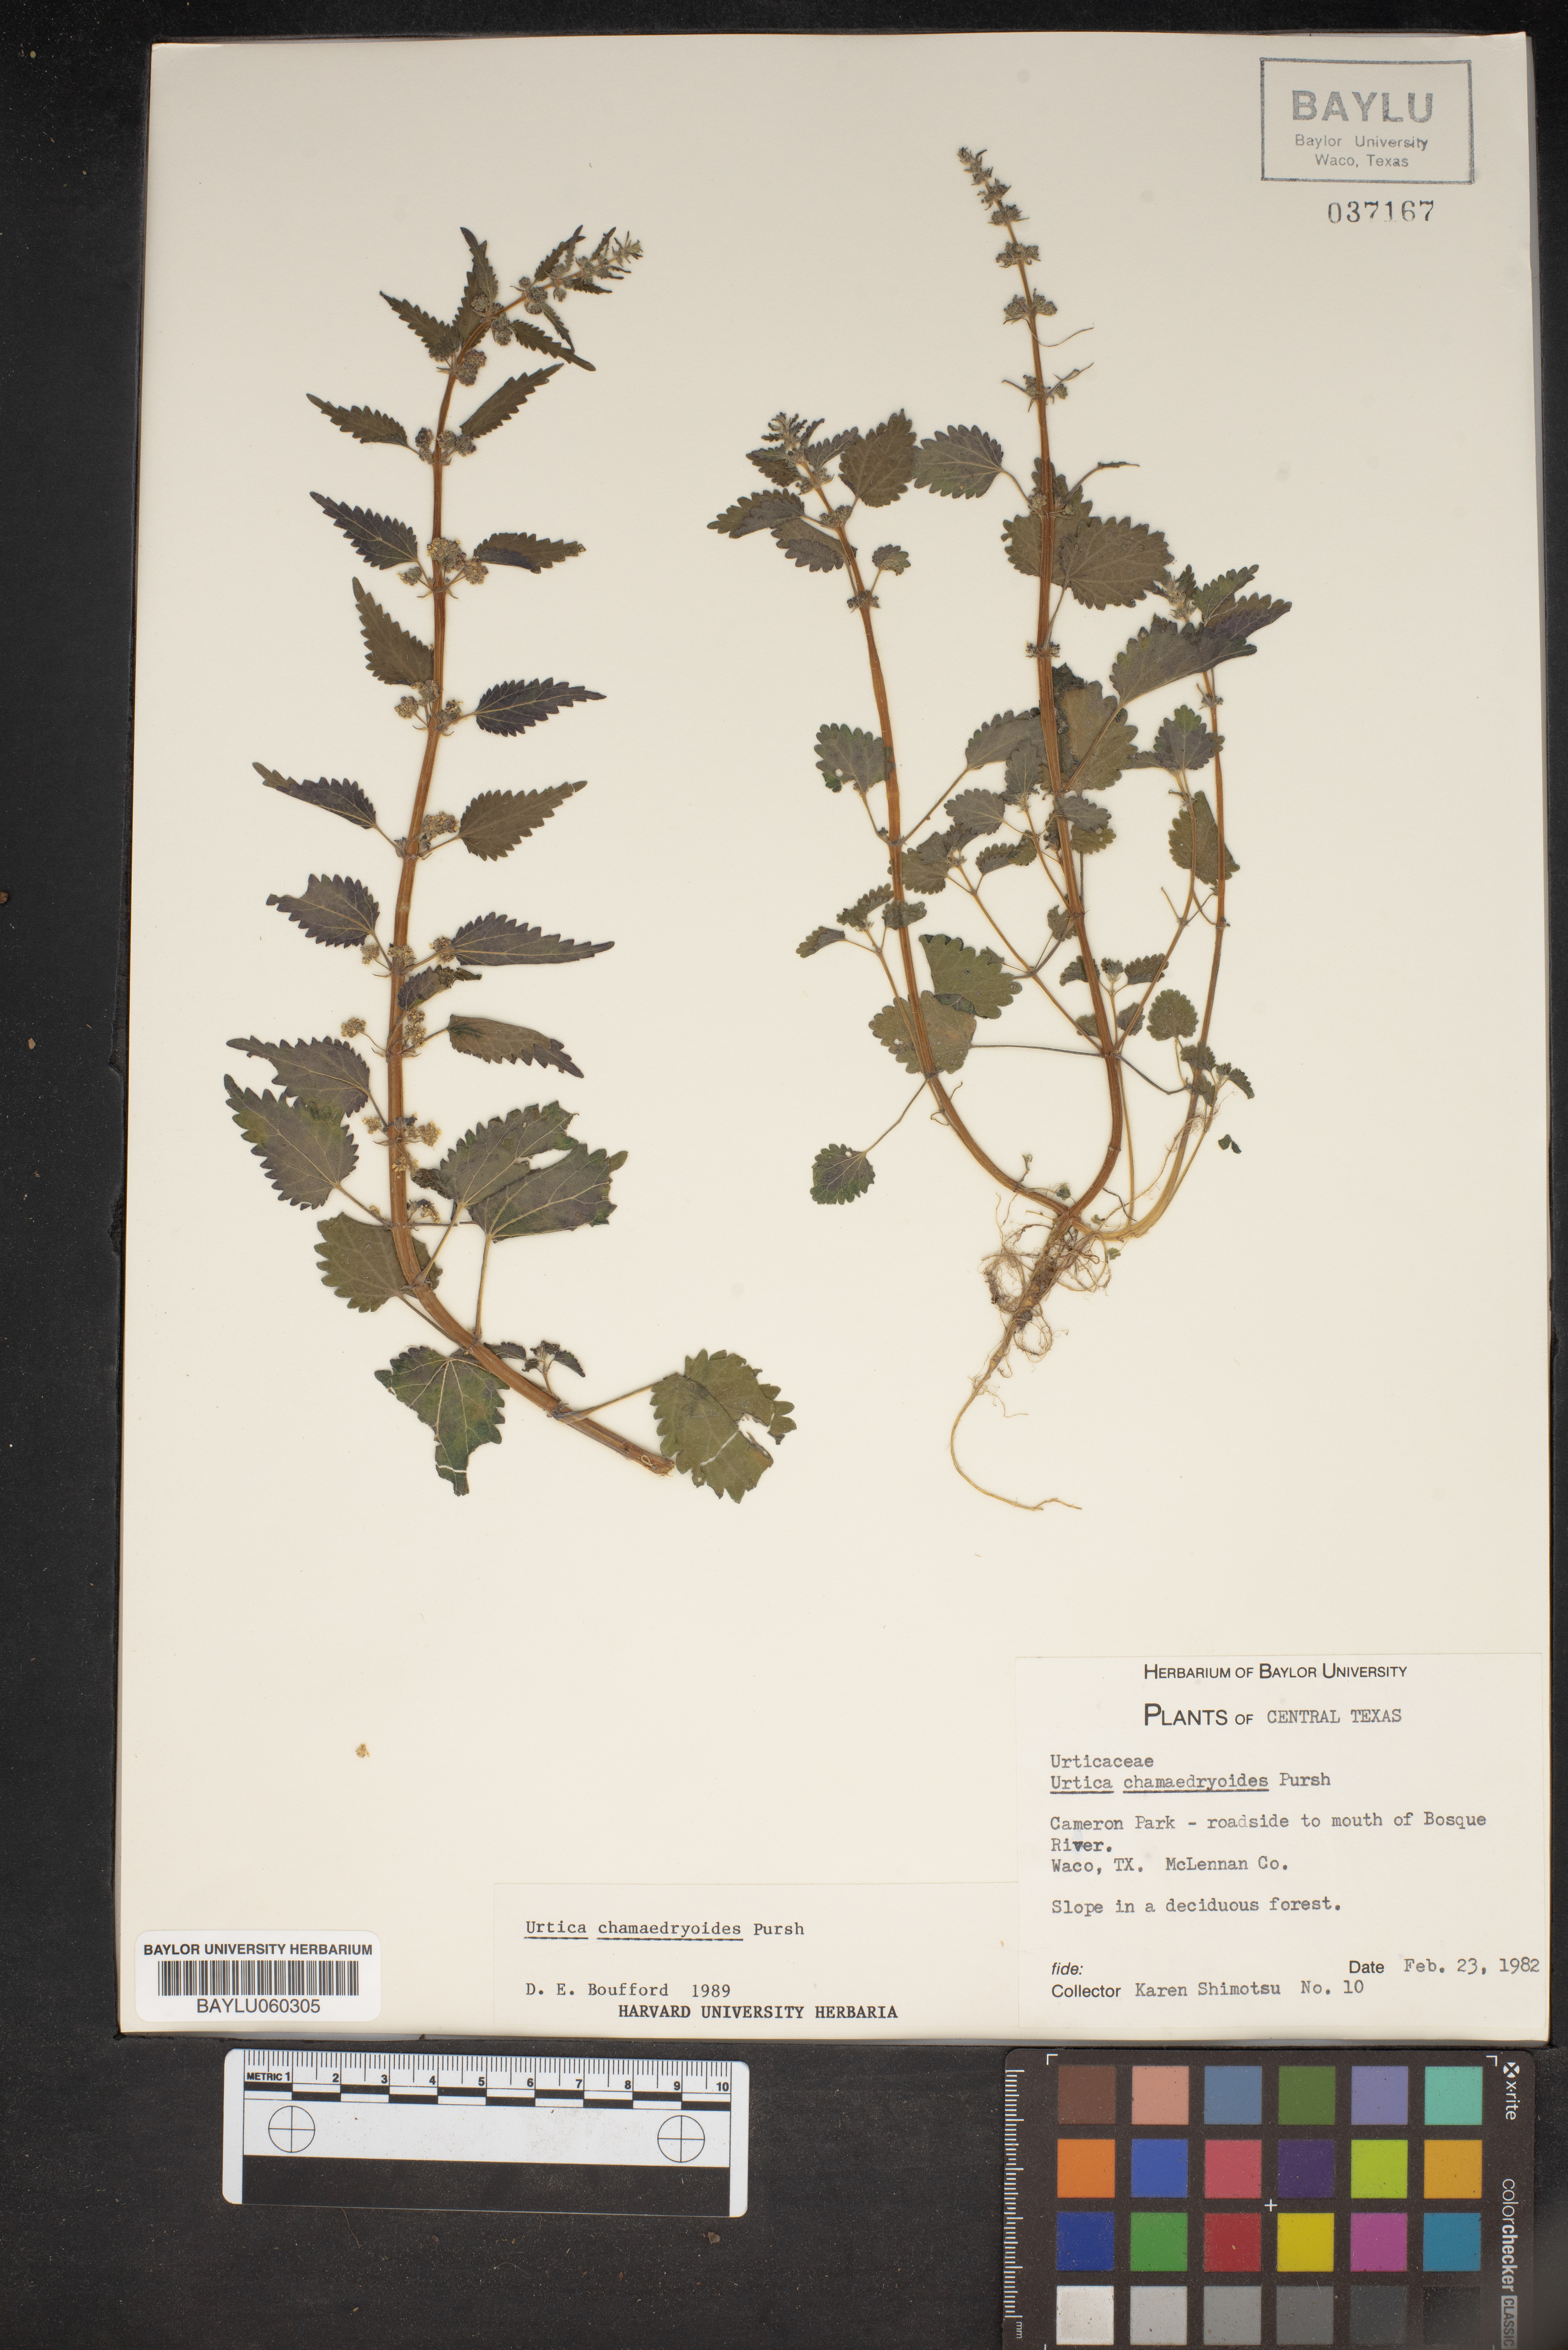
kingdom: Plantae
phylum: Tracheophyta
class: Magnoliopsida
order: Rosales
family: Urticaceae
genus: Urtica
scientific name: Urtica chamaedryoides
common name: Heart-leaf nettle
